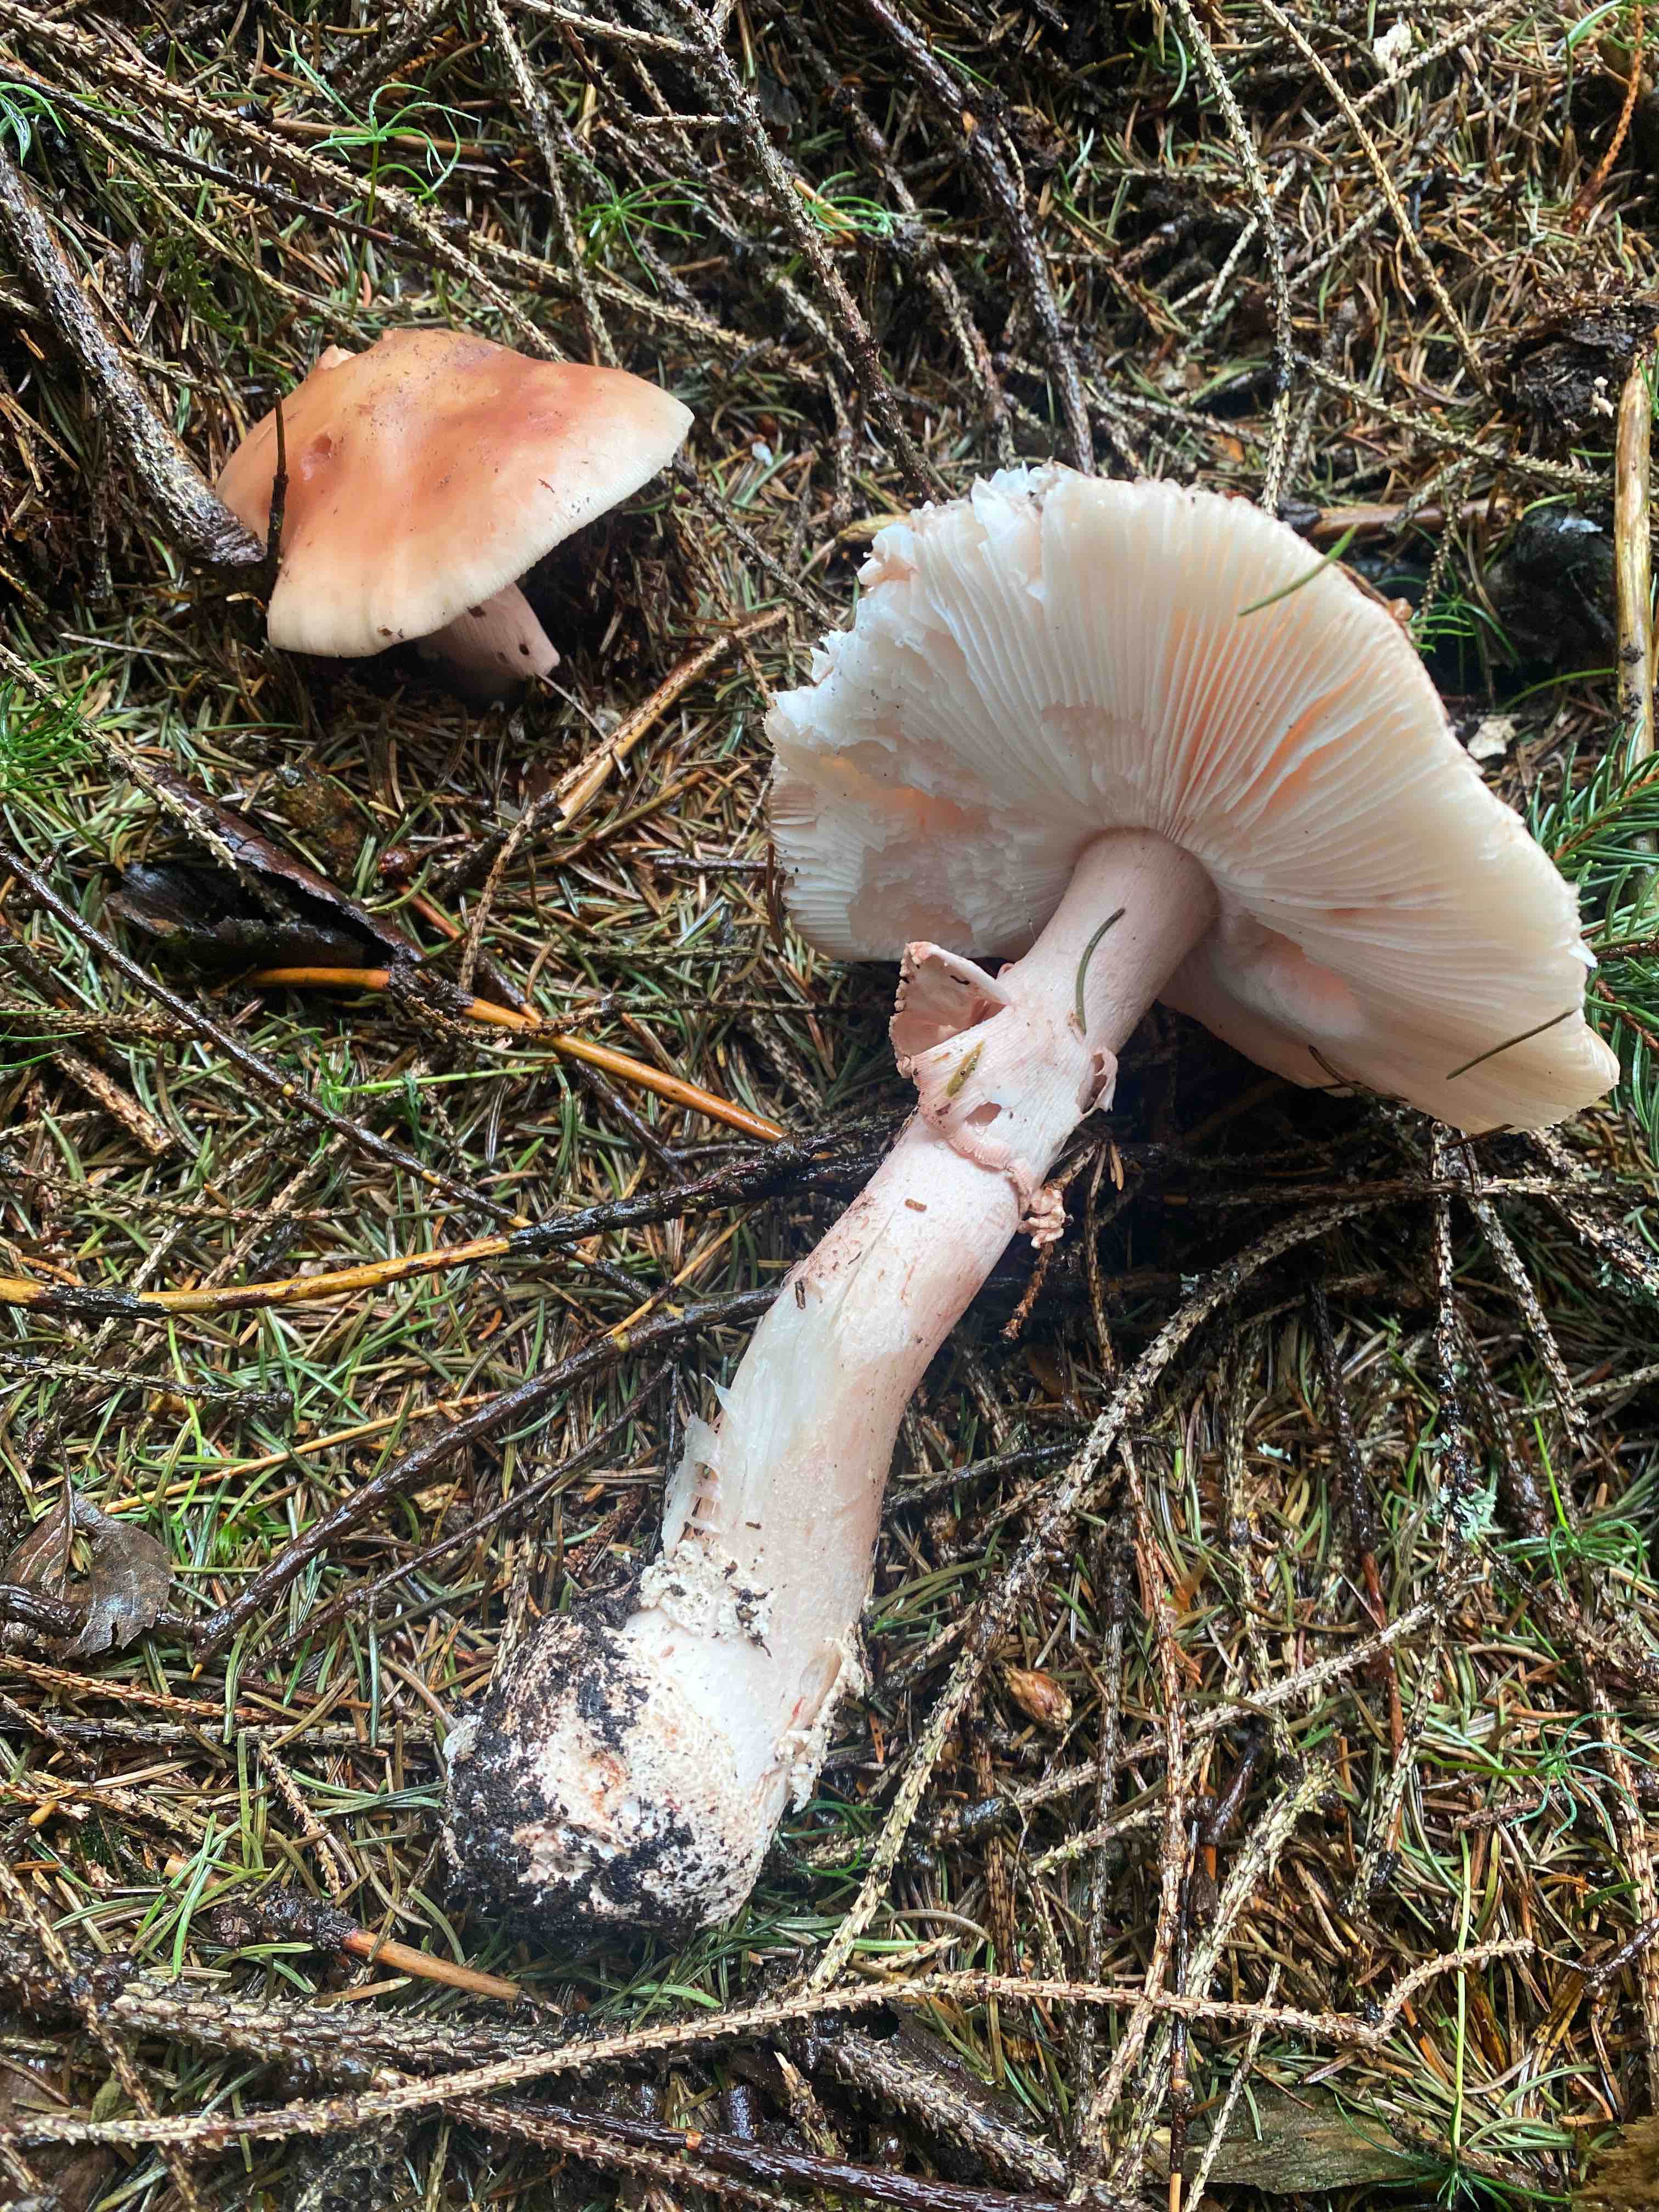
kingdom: Fungi
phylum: Basidiomycota
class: Agaricomycetes
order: Agaricales
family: Amanitaceae
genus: Amanita
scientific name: Amanita rubescens
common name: rødmende fluesvamp
